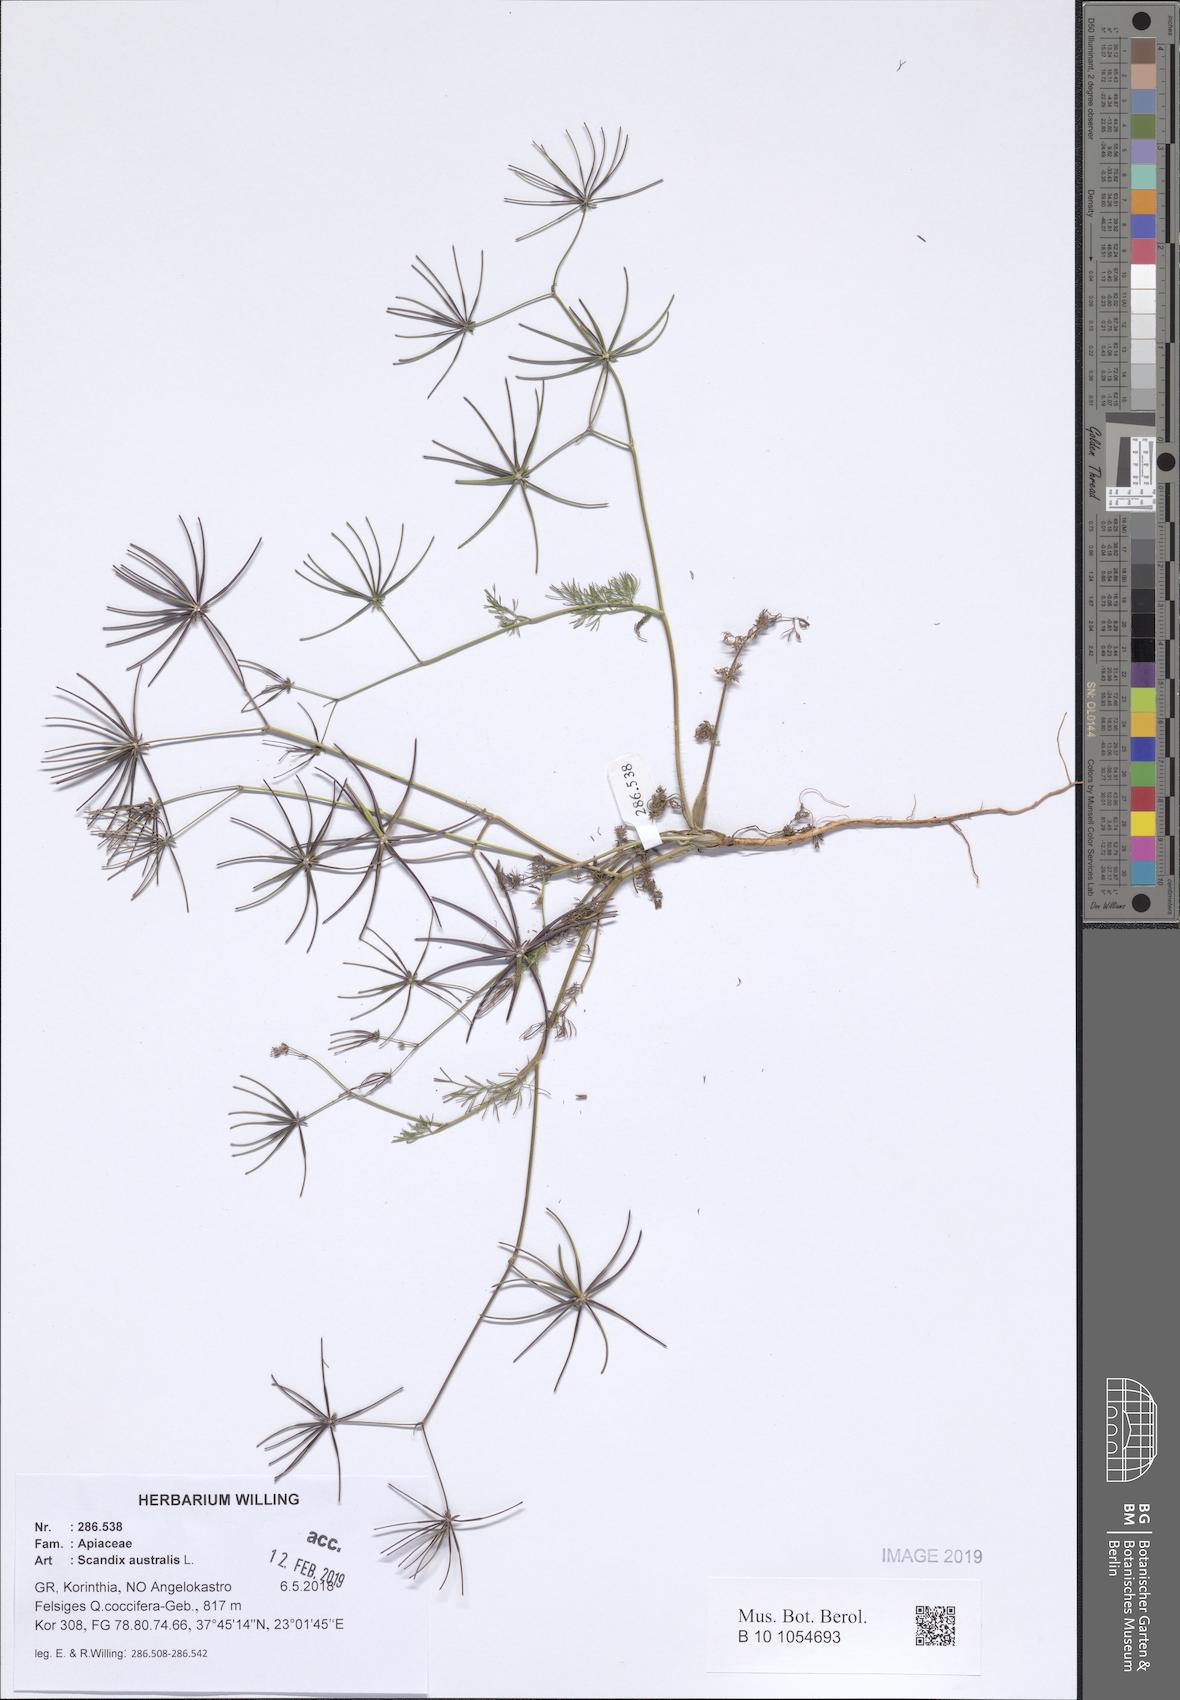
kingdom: Plantae
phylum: Tracheophyta
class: Magnoliopsida
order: Apiales
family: Apiaceae
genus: Scandix
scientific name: Scandix australis
